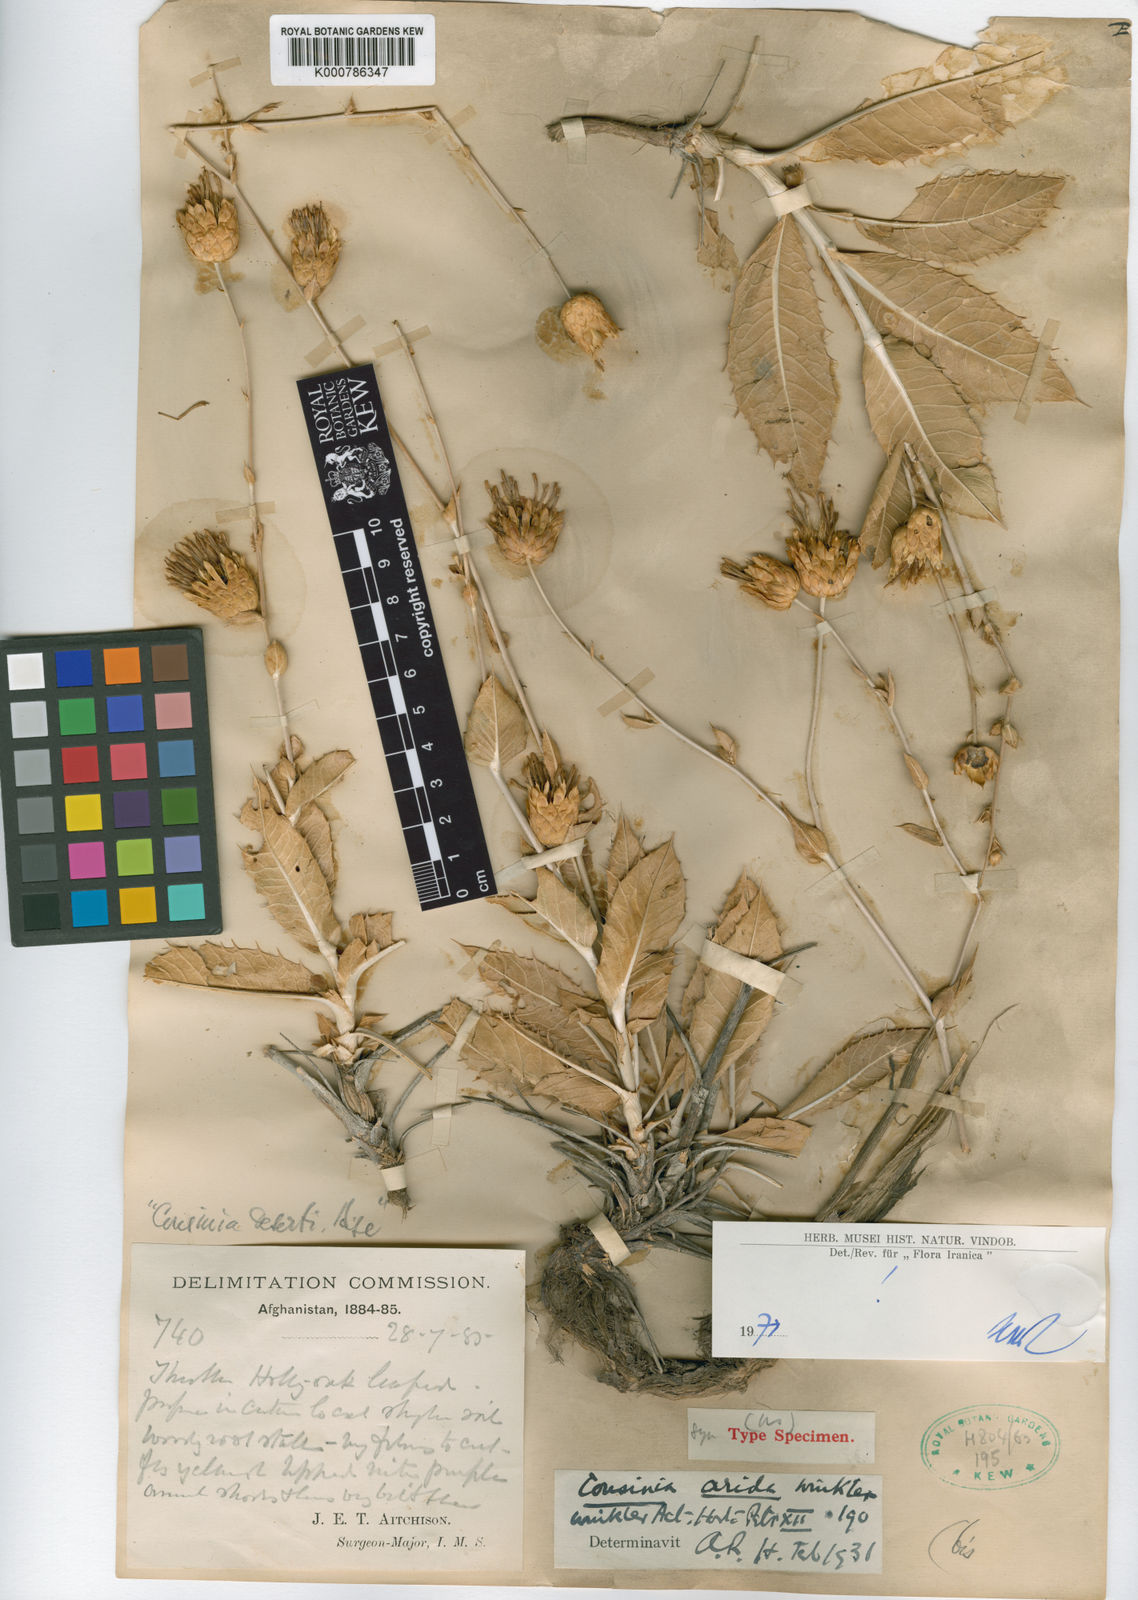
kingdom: Plantae
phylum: Tracheophyta
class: Magnoliopsida
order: Asterales
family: Asteraceae
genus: Cousinia
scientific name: Cousinia arida
